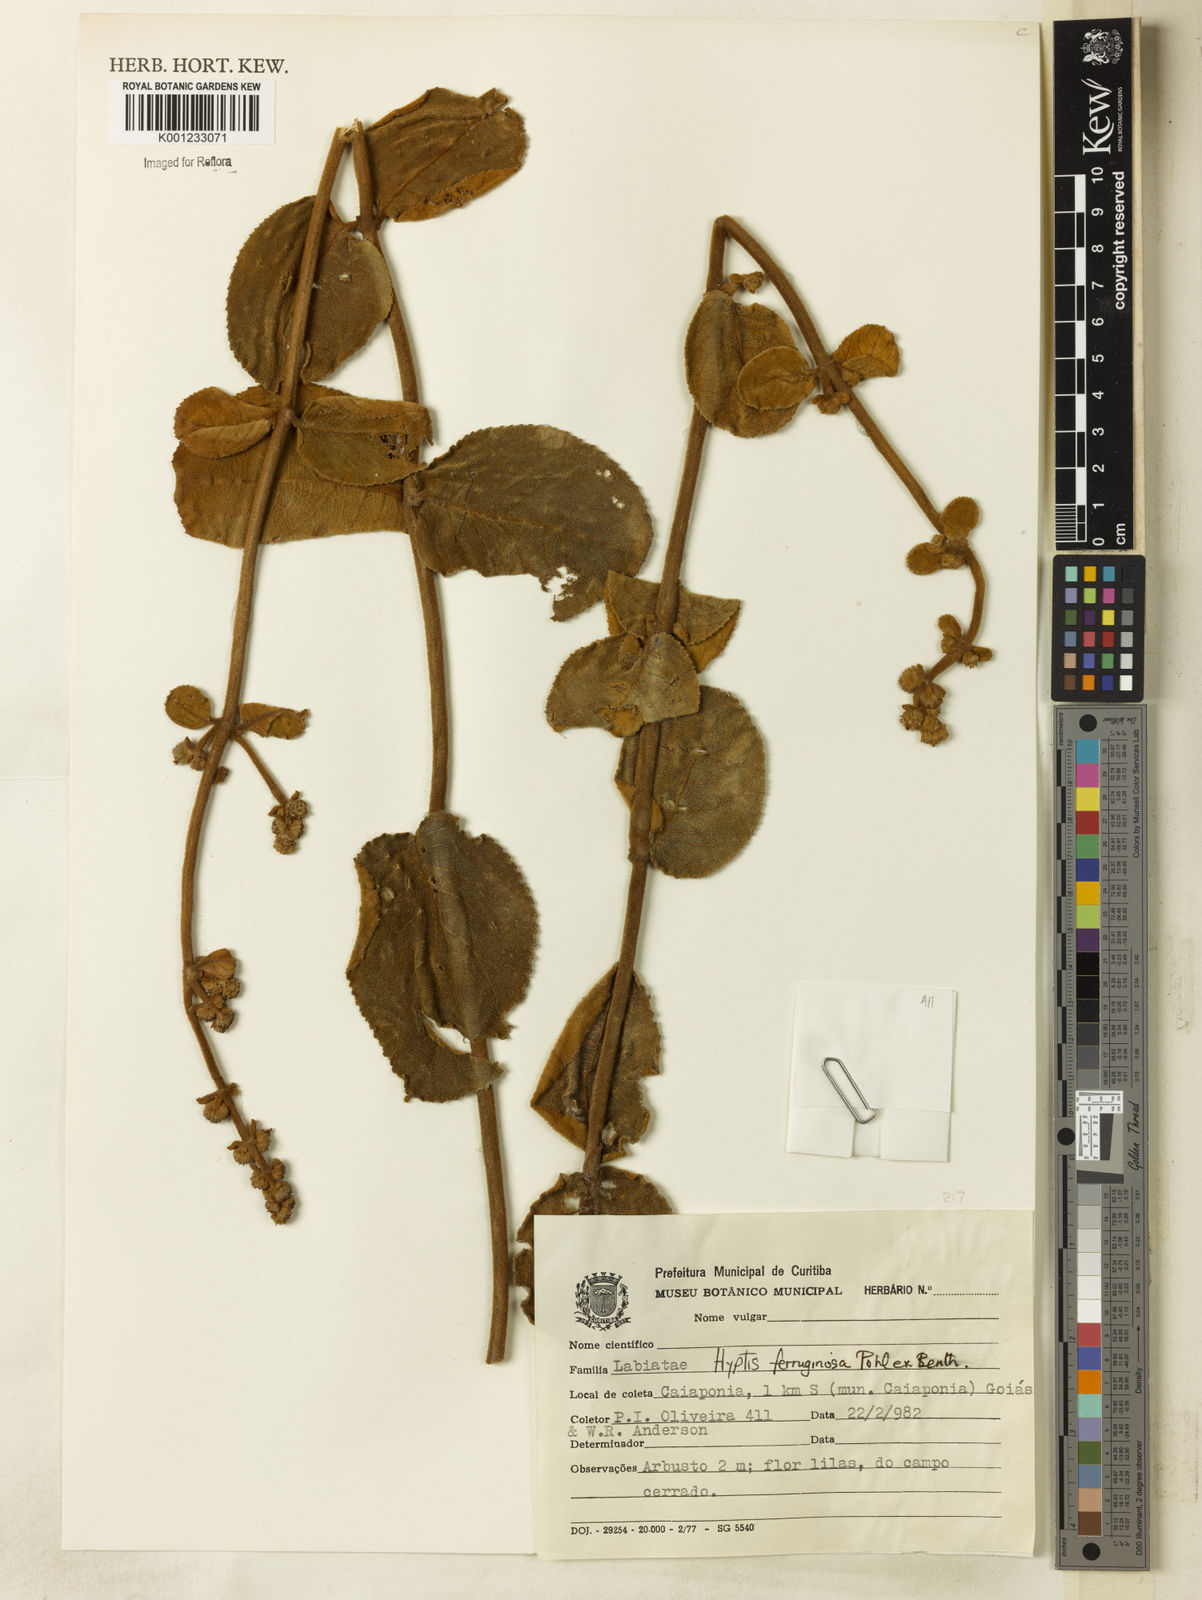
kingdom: Plantae
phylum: Tracheophyta
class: Magnoliopsida
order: Lamiales
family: Lamiaceae
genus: Hyptis
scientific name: Hyptis ferruginosa
